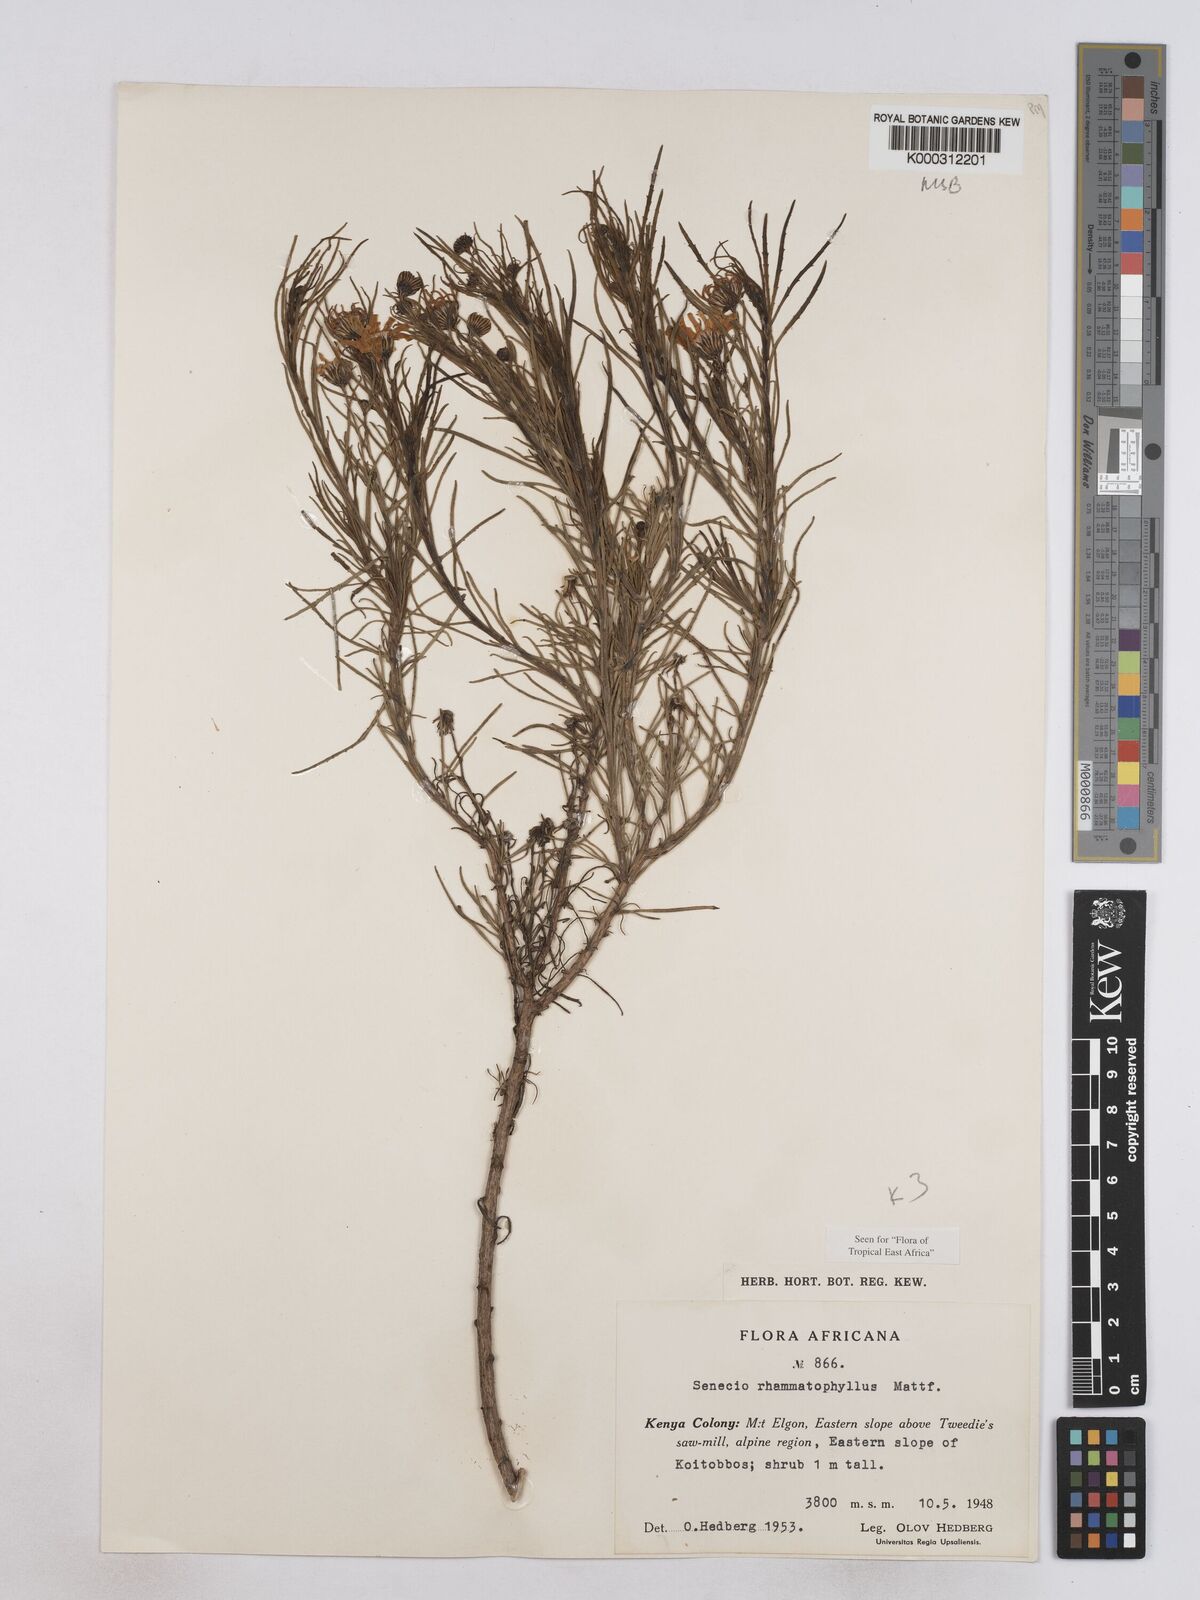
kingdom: Plantae
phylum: Tracheophyta
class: Magnoliopsida
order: Asterales
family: Asteraceae
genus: Senecio
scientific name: Senecio rhammatophyllus
